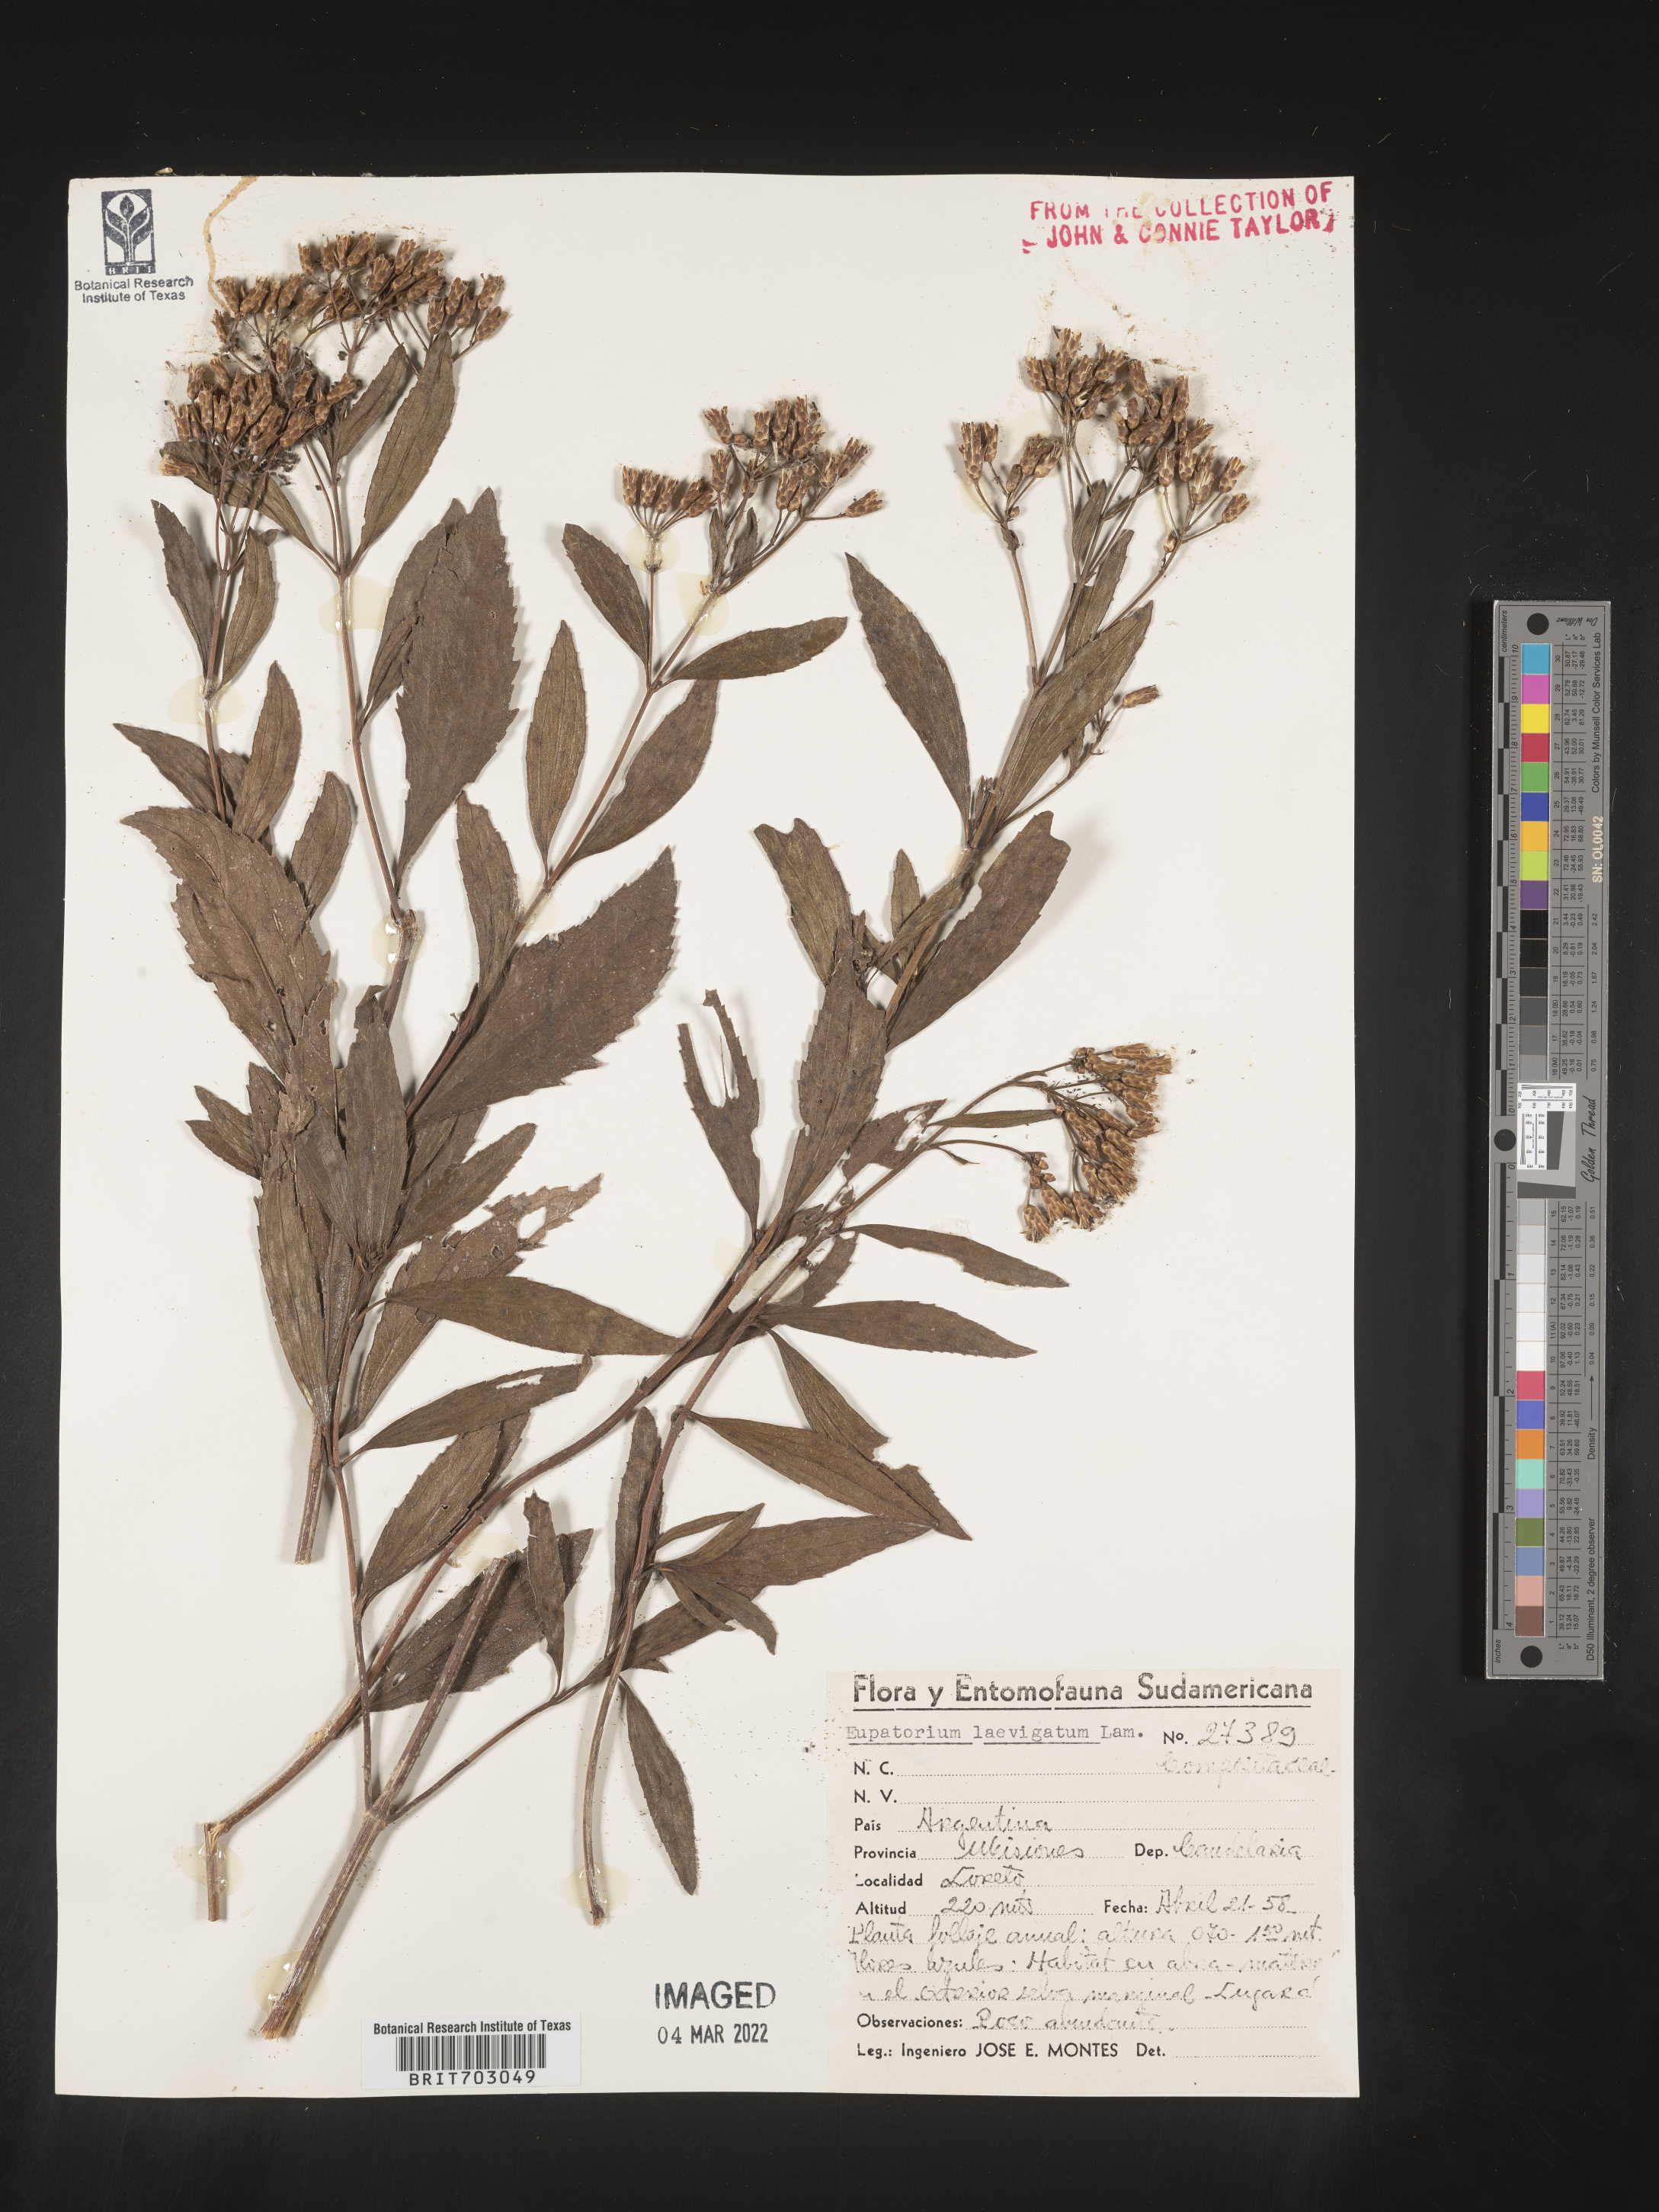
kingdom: Plantae
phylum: Tracheophyta
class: Magnoliopsida
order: Asterales
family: Asteraceae
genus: Eupatorium
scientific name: Eupatorium
